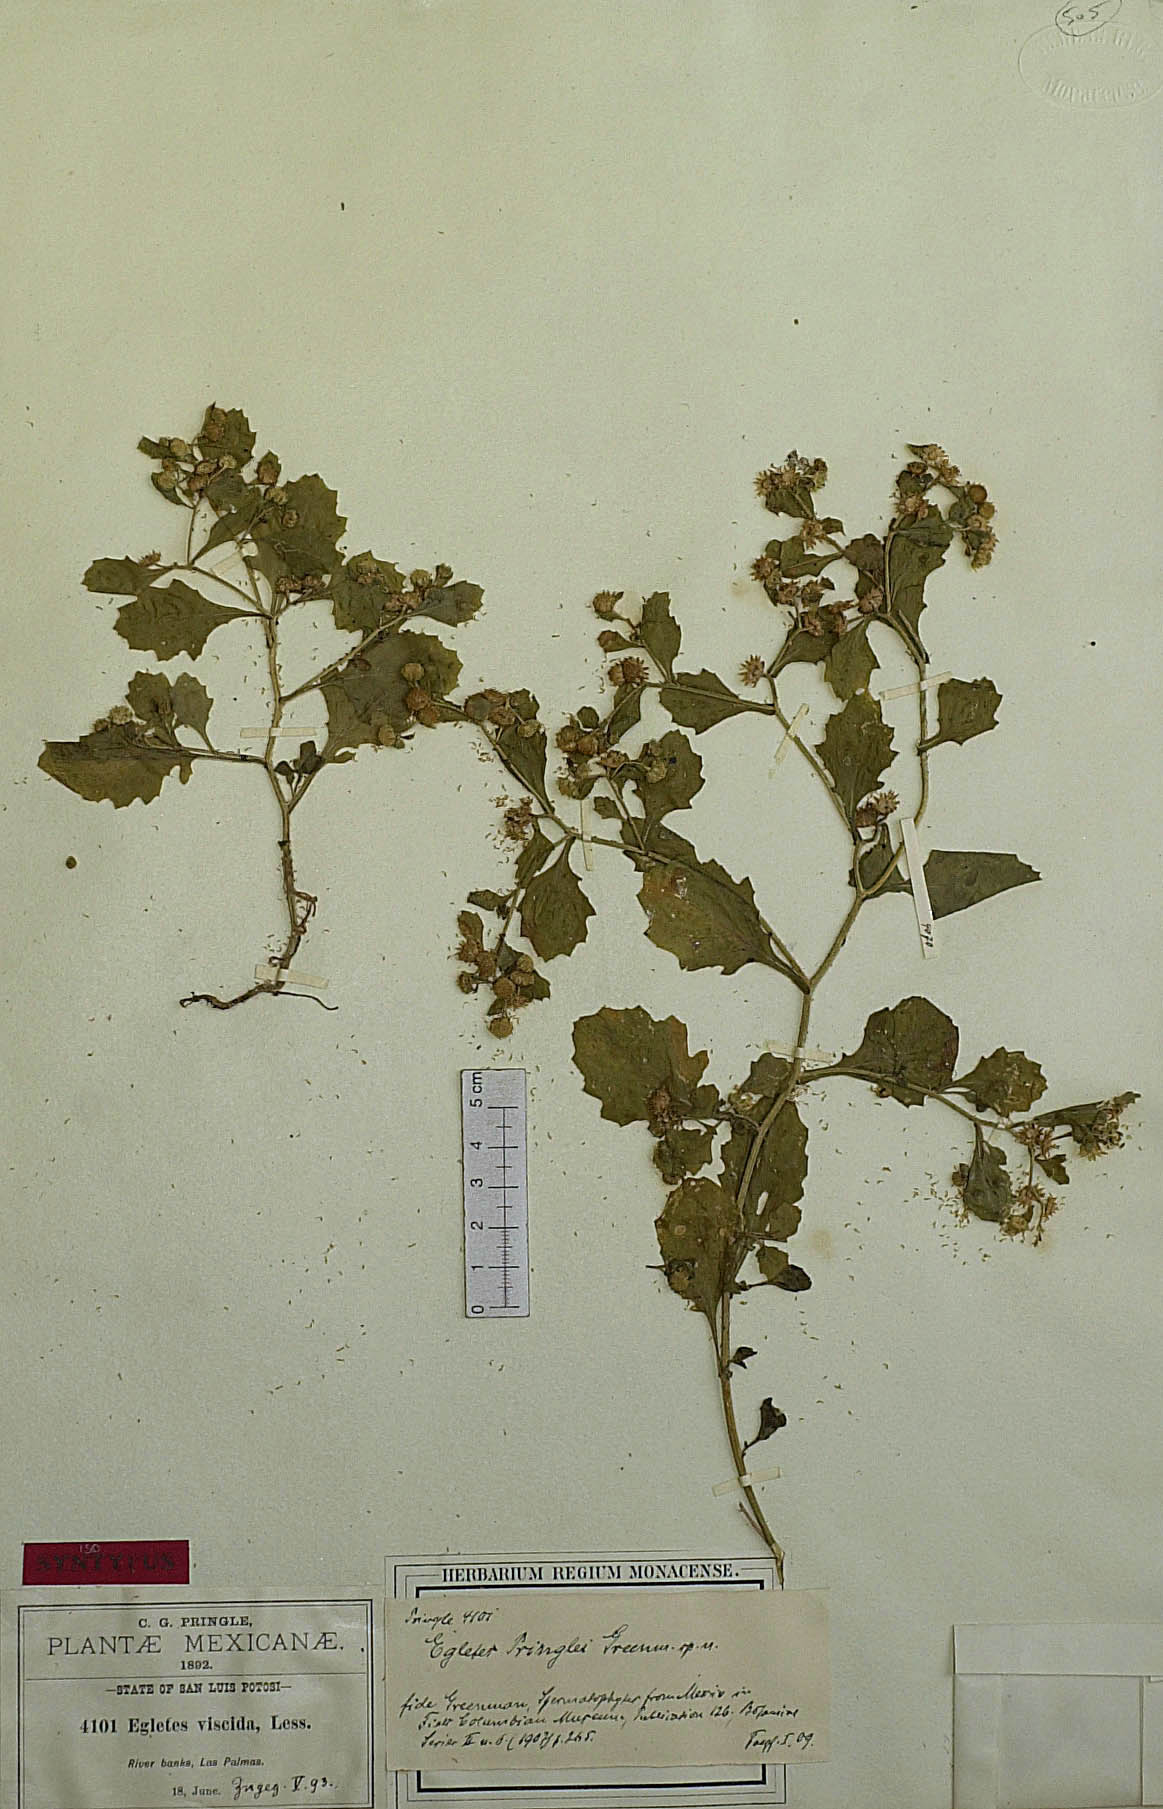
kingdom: Plantae
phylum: Tracheophyta
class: Magnoliopsida
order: Asterales
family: Asteraceae
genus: Egletes
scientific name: Egletes liebmannii
